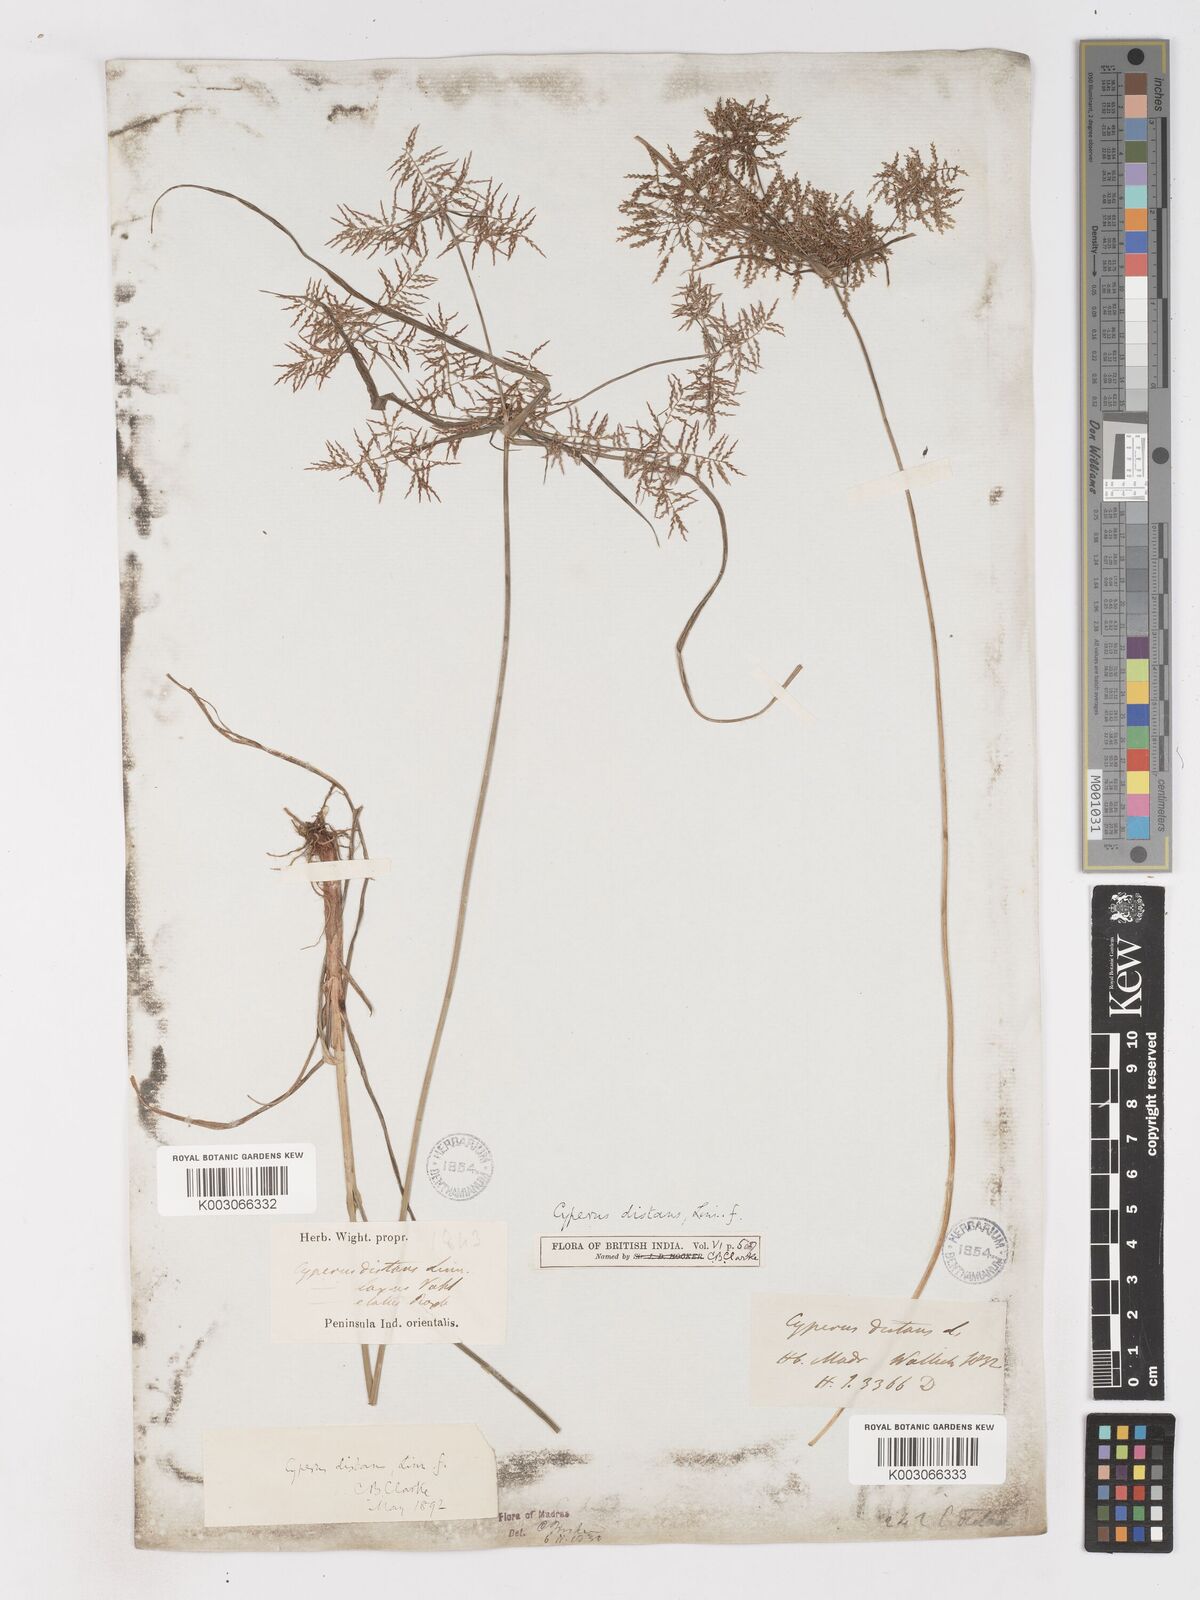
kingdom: Plantae
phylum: Tracheophyta
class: Liliopsida
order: Poales
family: Cyperaceae
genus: Cyperus
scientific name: Cyperus distans
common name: Slender cyperus
